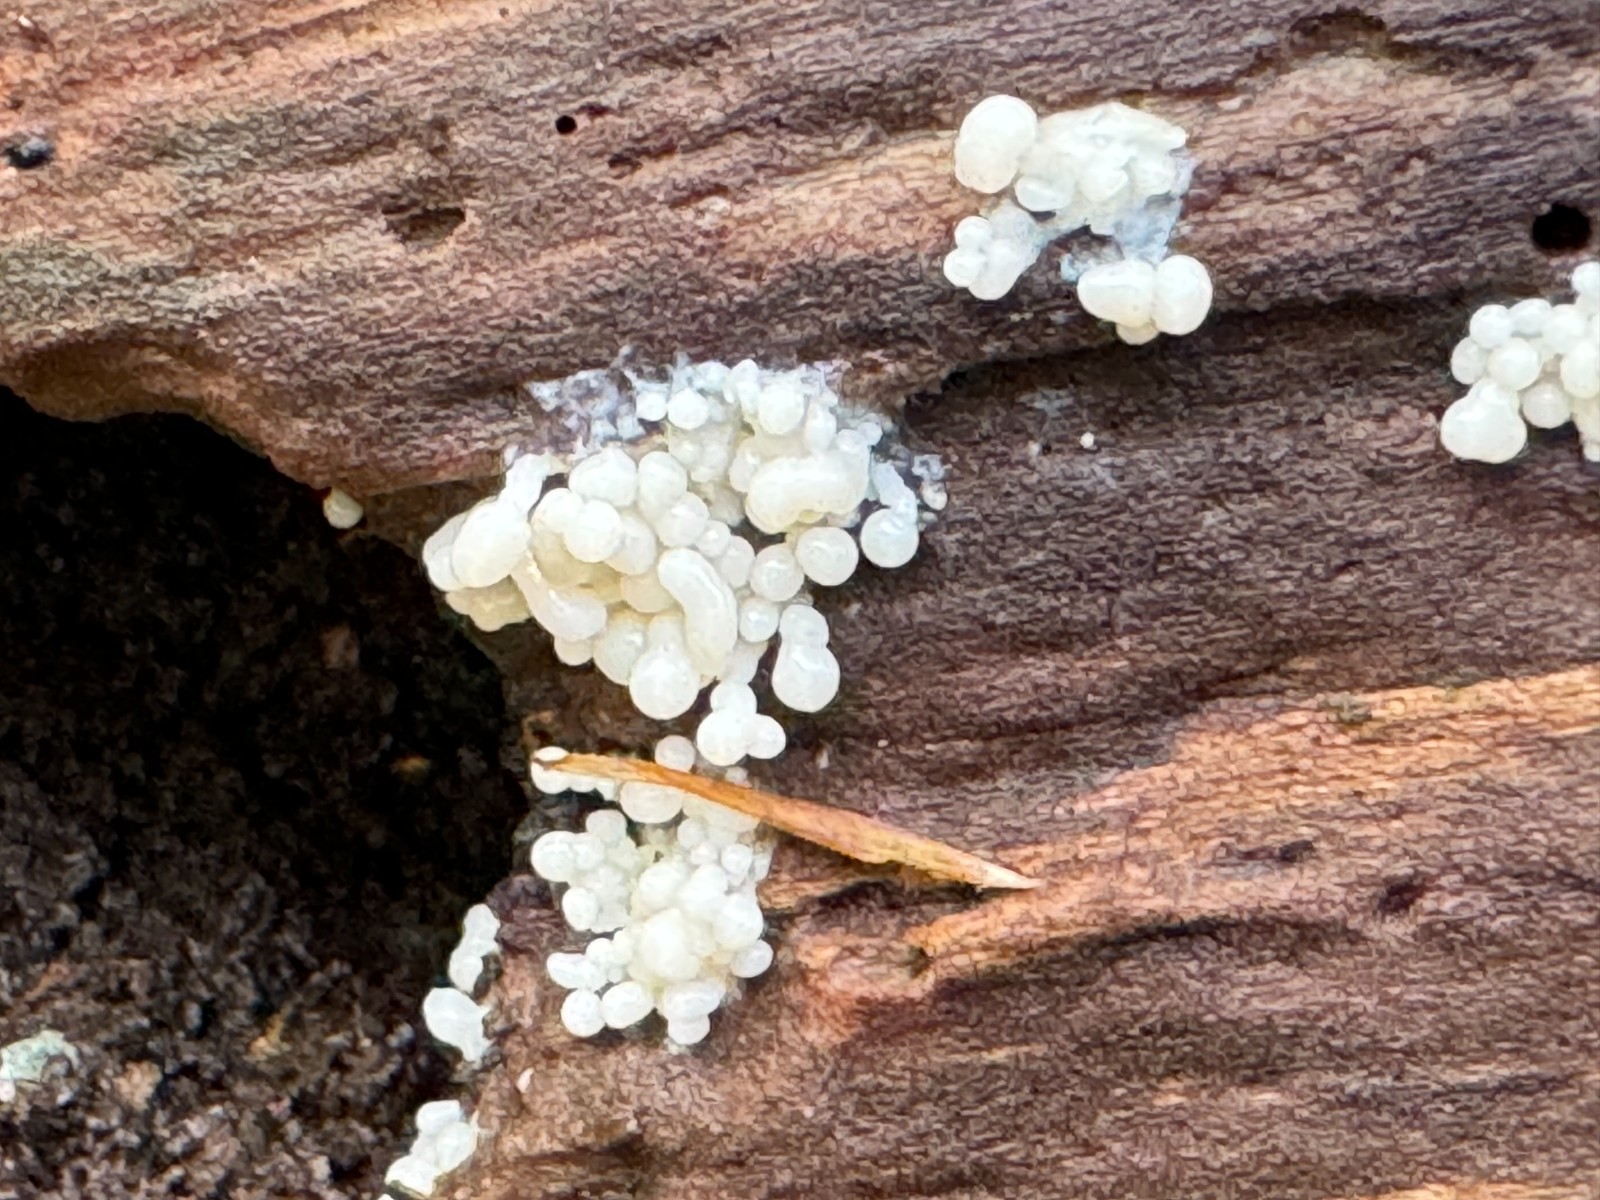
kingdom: Protozoa
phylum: Mycetozoa
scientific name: Mycetozoa
